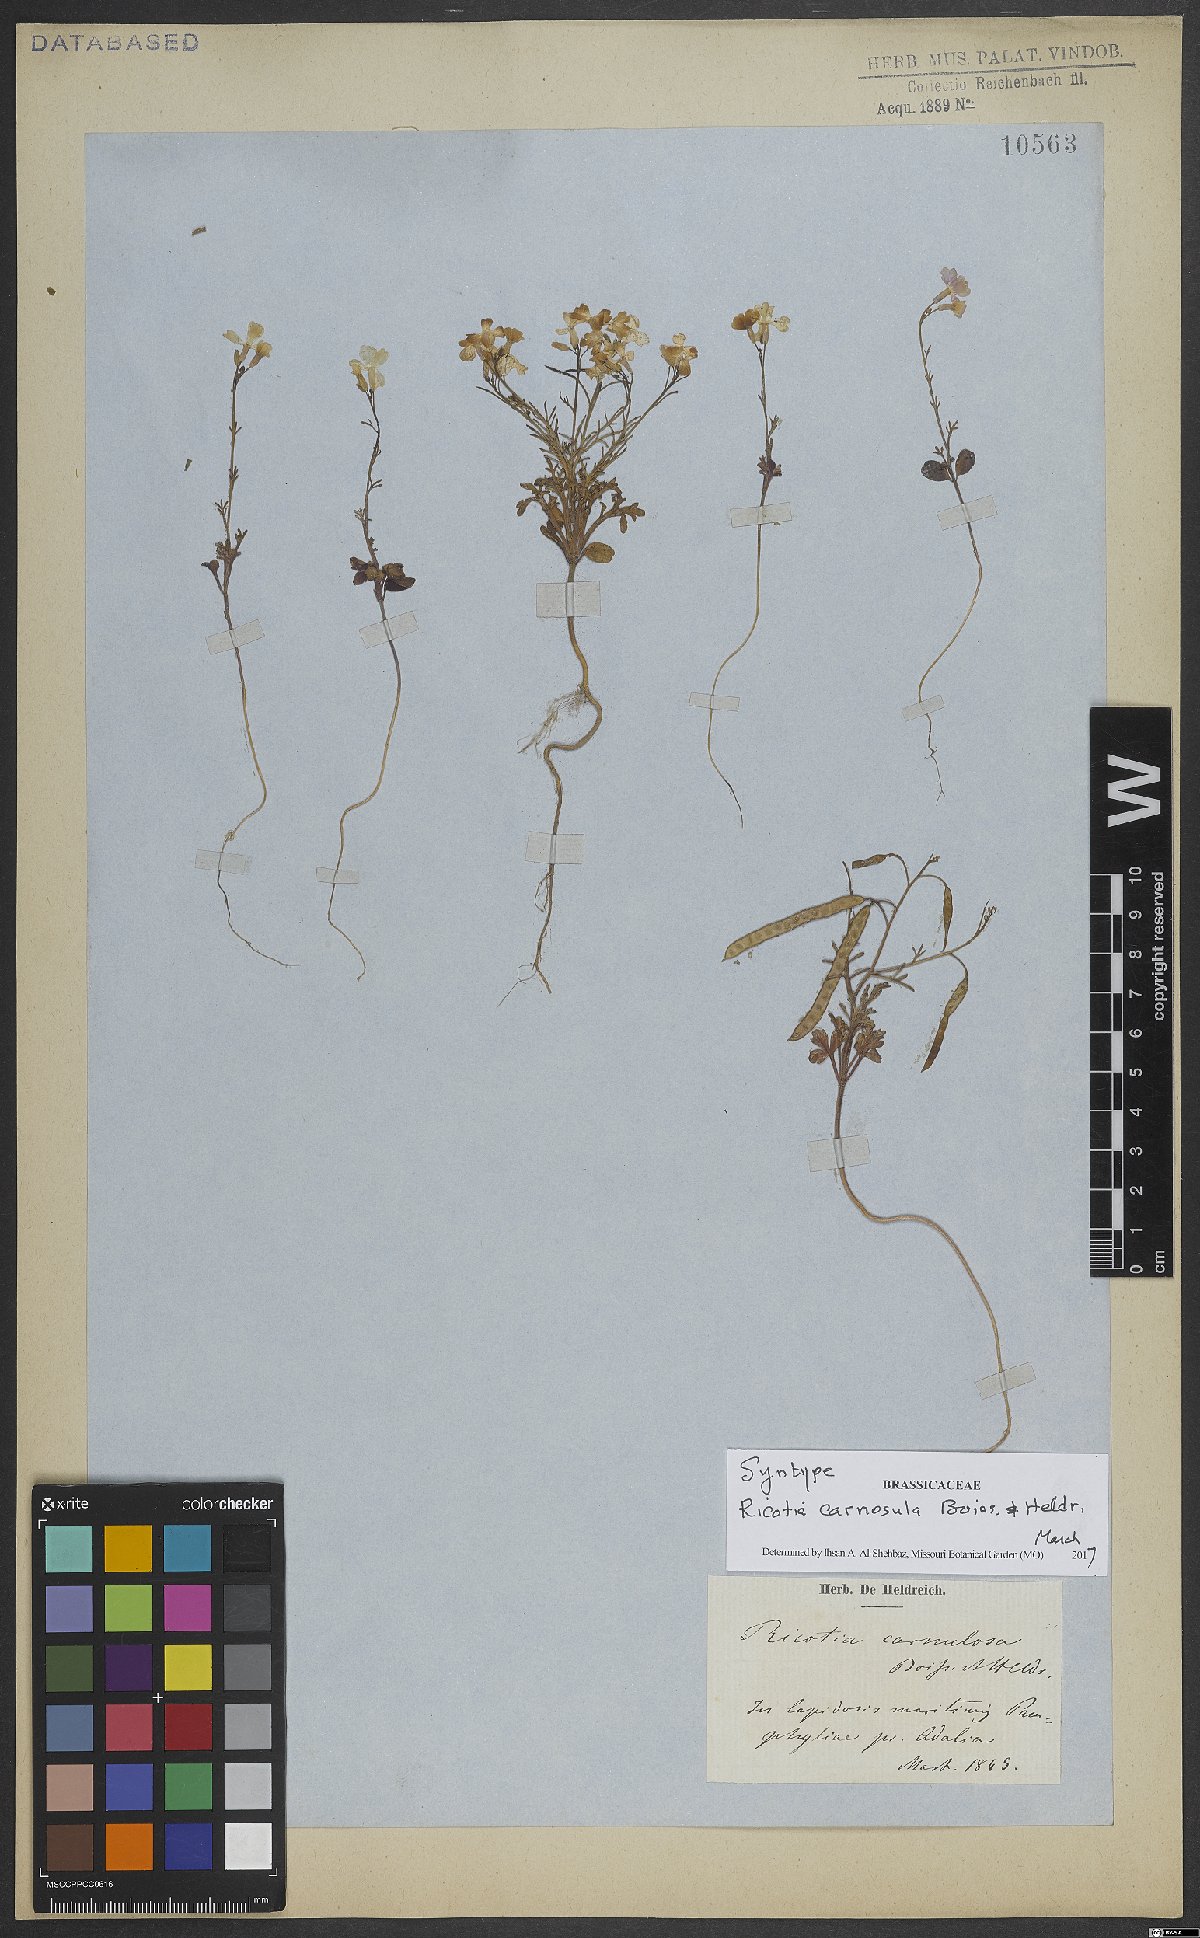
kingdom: Plantae
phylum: Tracheophyta
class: Magnoliopsida
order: Brassicales
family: Brassicaceae
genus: Ricotia
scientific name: Ricotia carnosula
